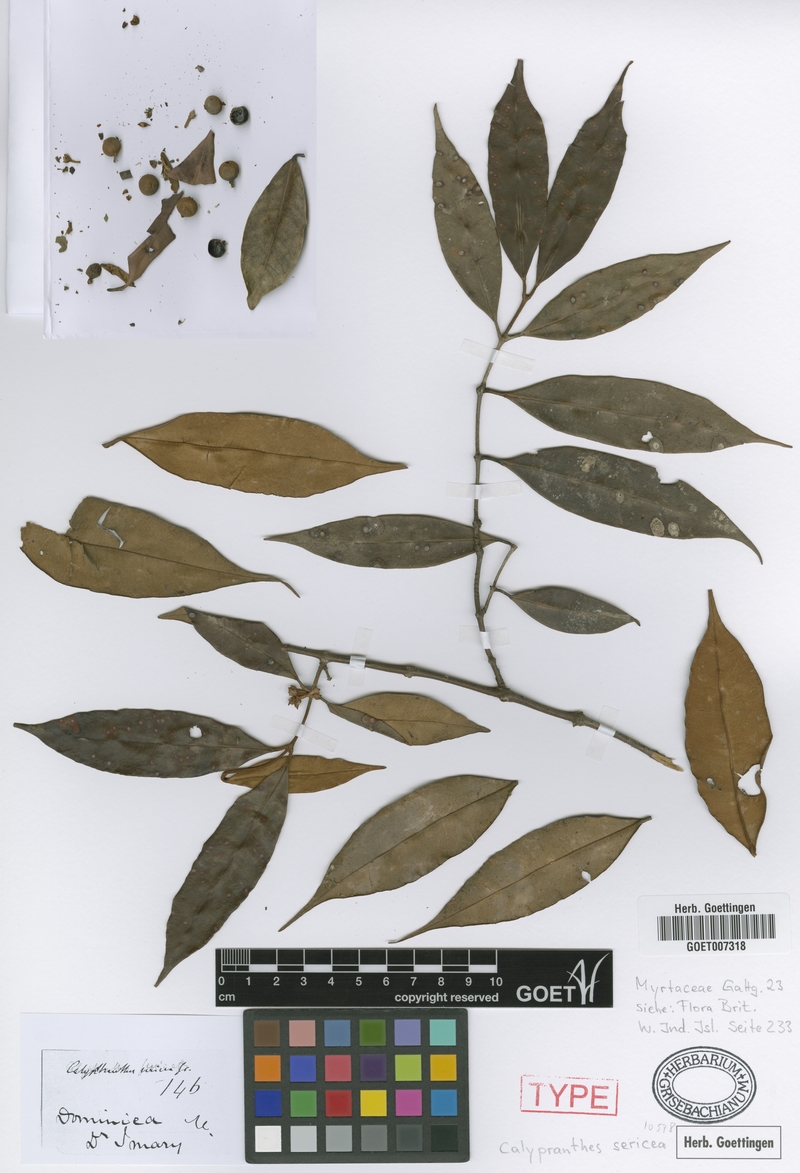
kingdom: Plantae
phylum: Tracheophyta
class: Magnoliopsida
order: Myrtales
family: Myrtaceae
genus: Myrcia
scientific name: Myrcia fasciculata
